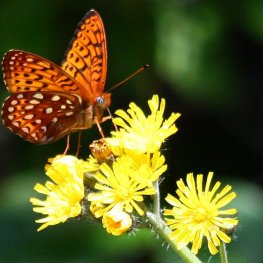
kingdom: Animalia
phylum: Arthropoda
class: Insecta
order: Lepidoptera
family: Nymphalidae
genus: Speyeria
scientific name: Speyeria atlantis
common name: Atlantis Fritillary
